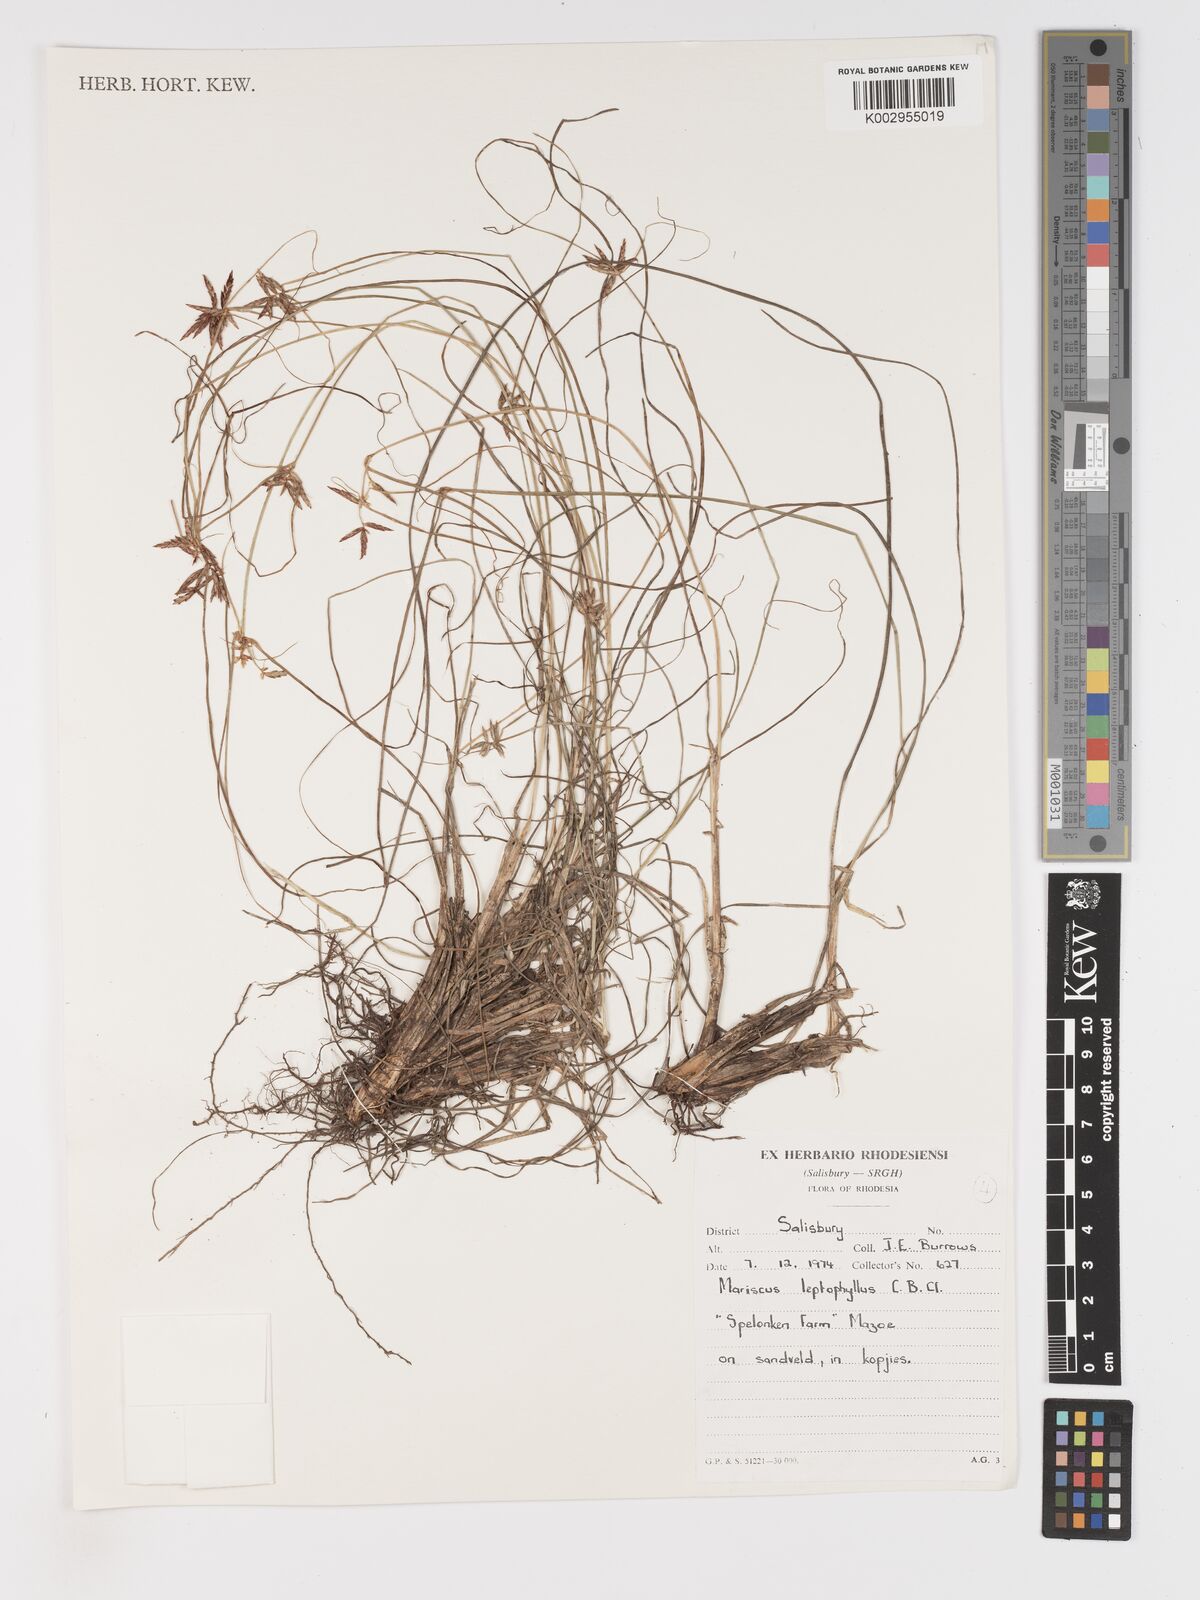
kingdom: Plantae
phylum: Tracheophyta
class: Liliopsida
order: Poales
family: Cyperaceae
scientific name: Cyperaceae
